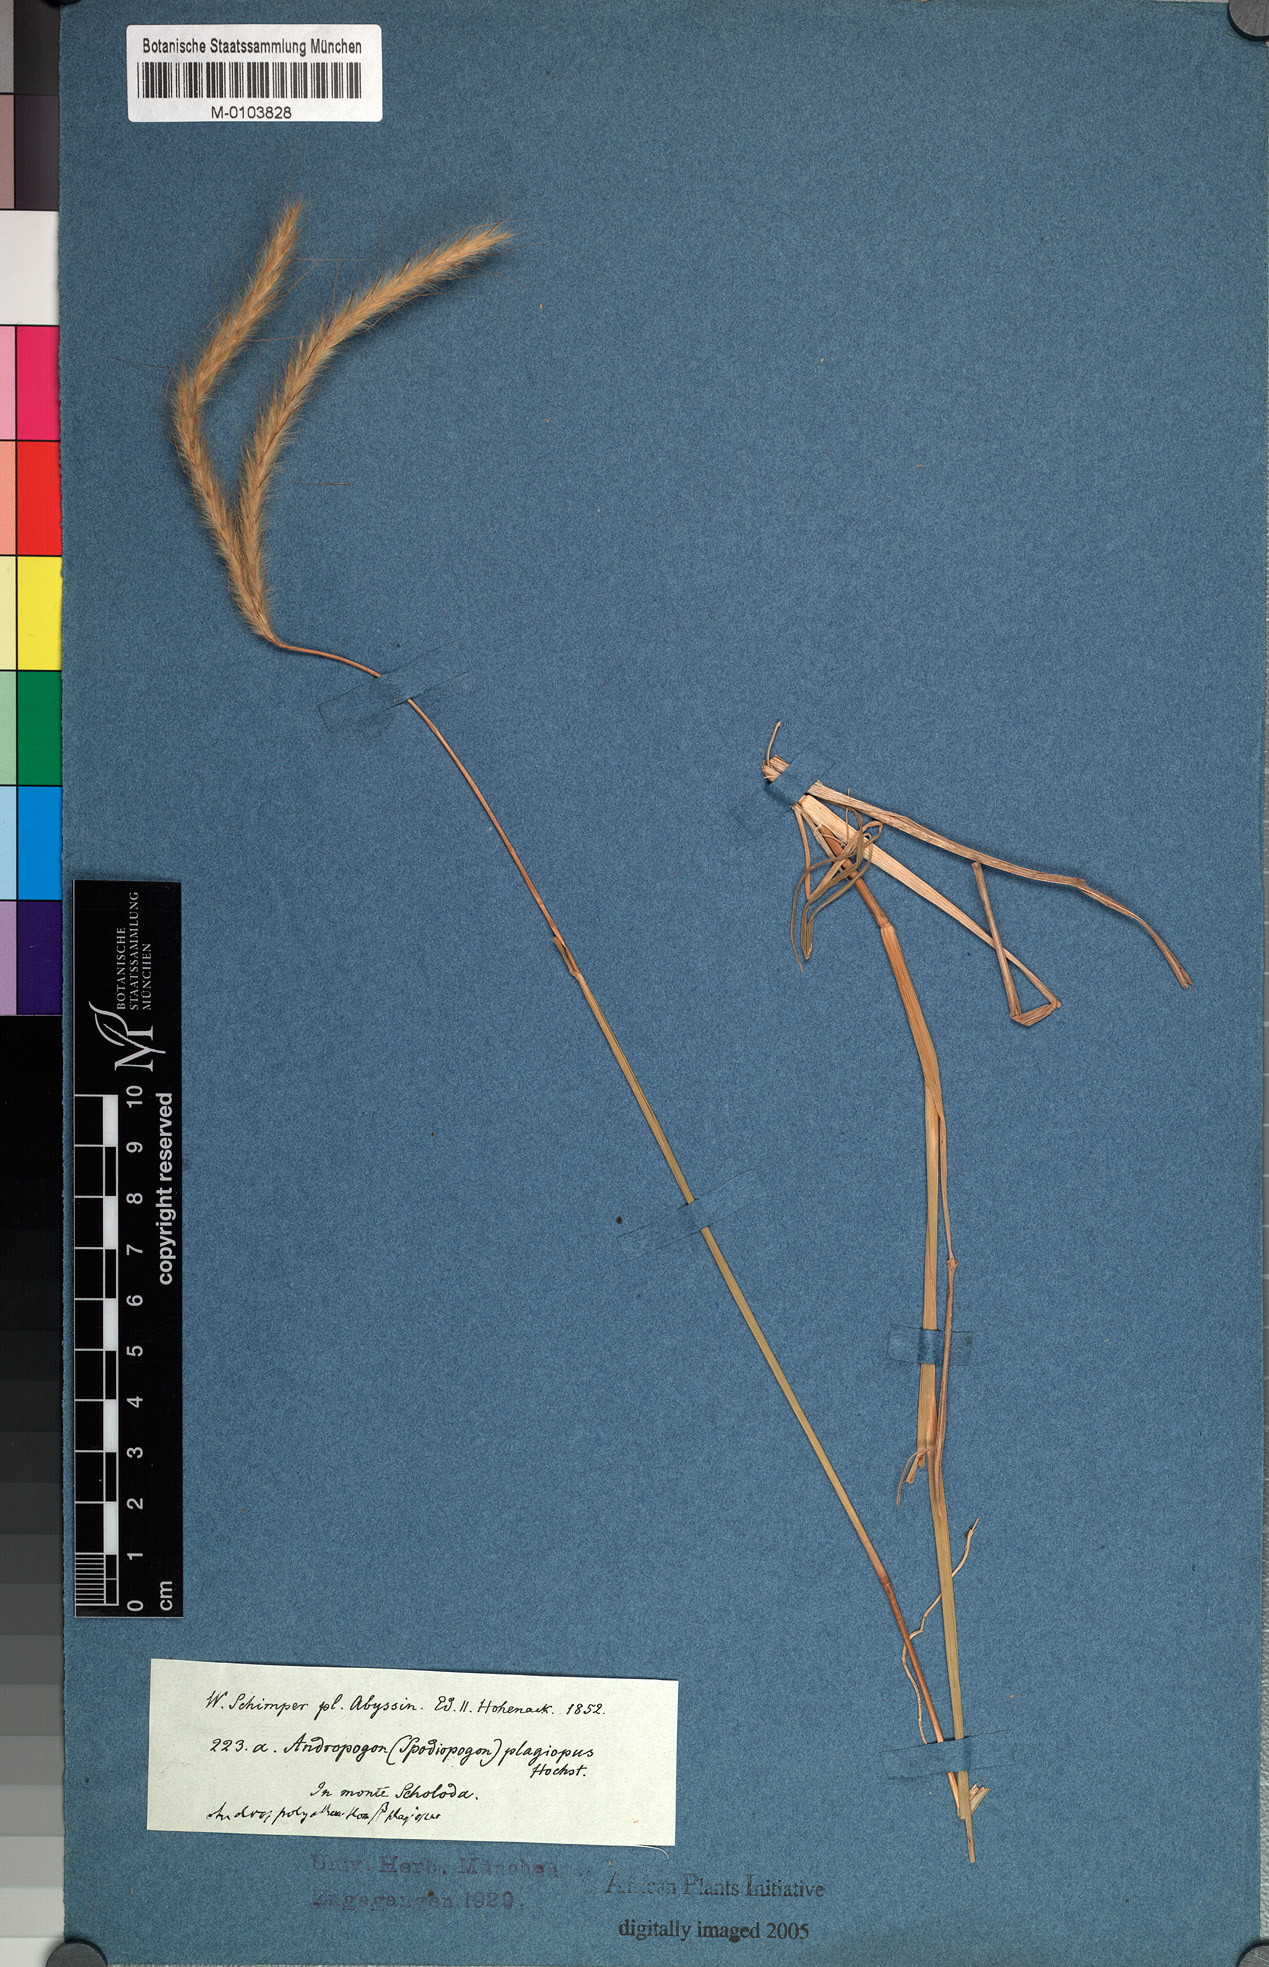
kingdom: Plantae
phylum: Tracheophyta
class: Liliopsida
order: Poales
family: Poaceae
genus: Andropogon
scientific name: Andropogon abyssinicus
